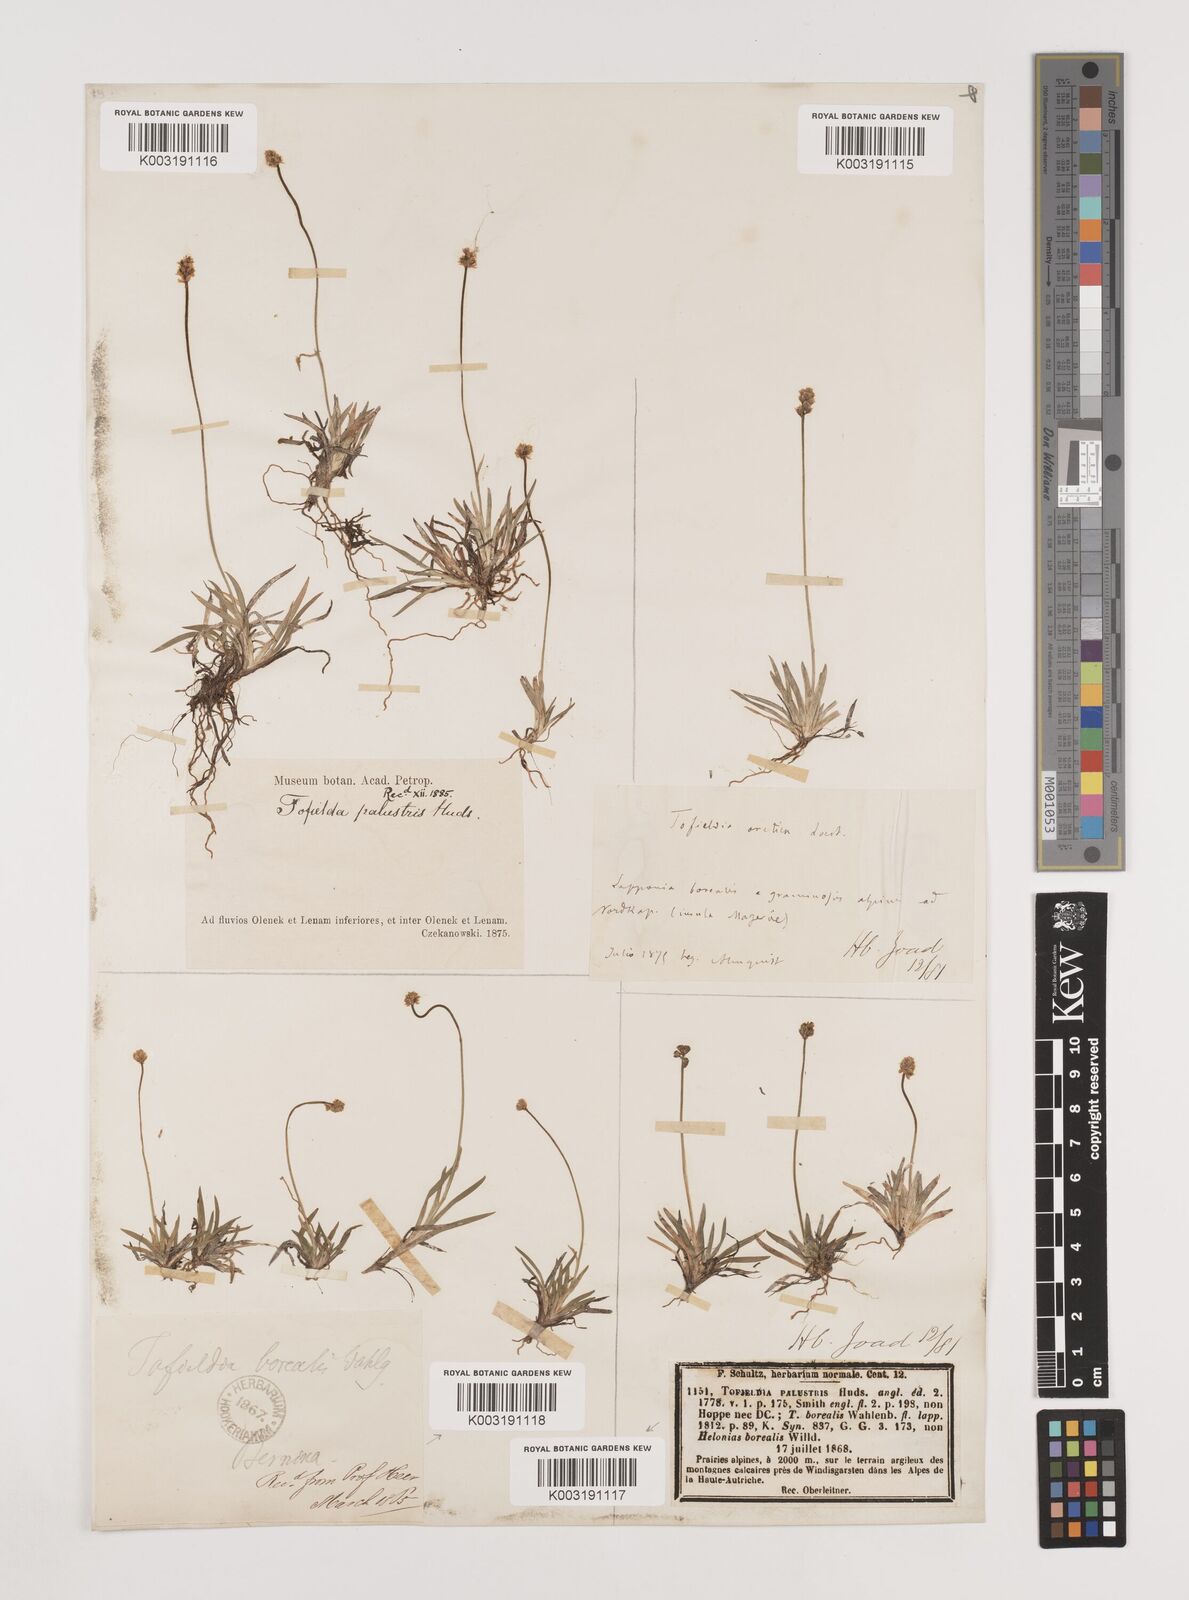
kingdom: Plantae
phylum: Tracheophyta
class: Liliopsida
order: Alismatales
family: Tofieldiaceae
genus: Tofieldia
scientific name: Tofieldia pusilla
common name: Scottish false asphodel
